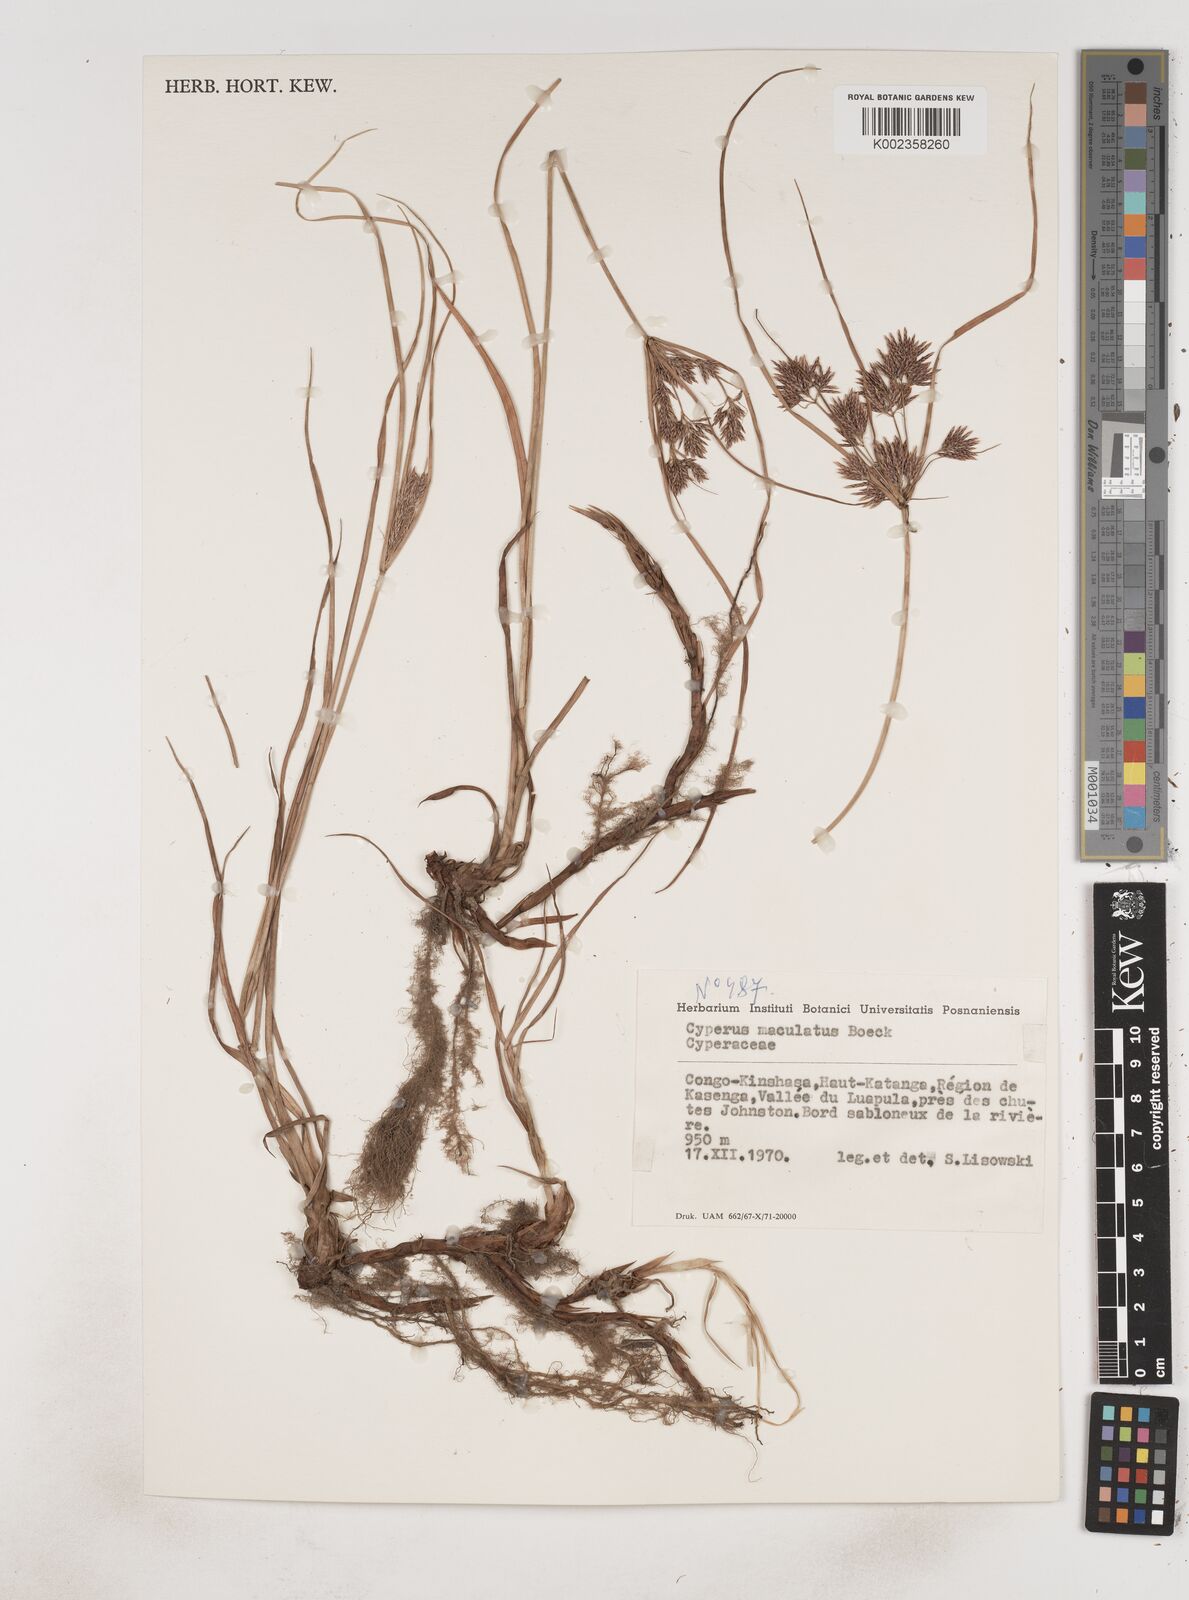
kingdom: Plantae
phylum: Tracheophyta
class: Liliopsida
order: Poales
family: Cyperaceae
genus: Cyperus
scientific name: Cyperus maculatus
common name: Maculated sedge
